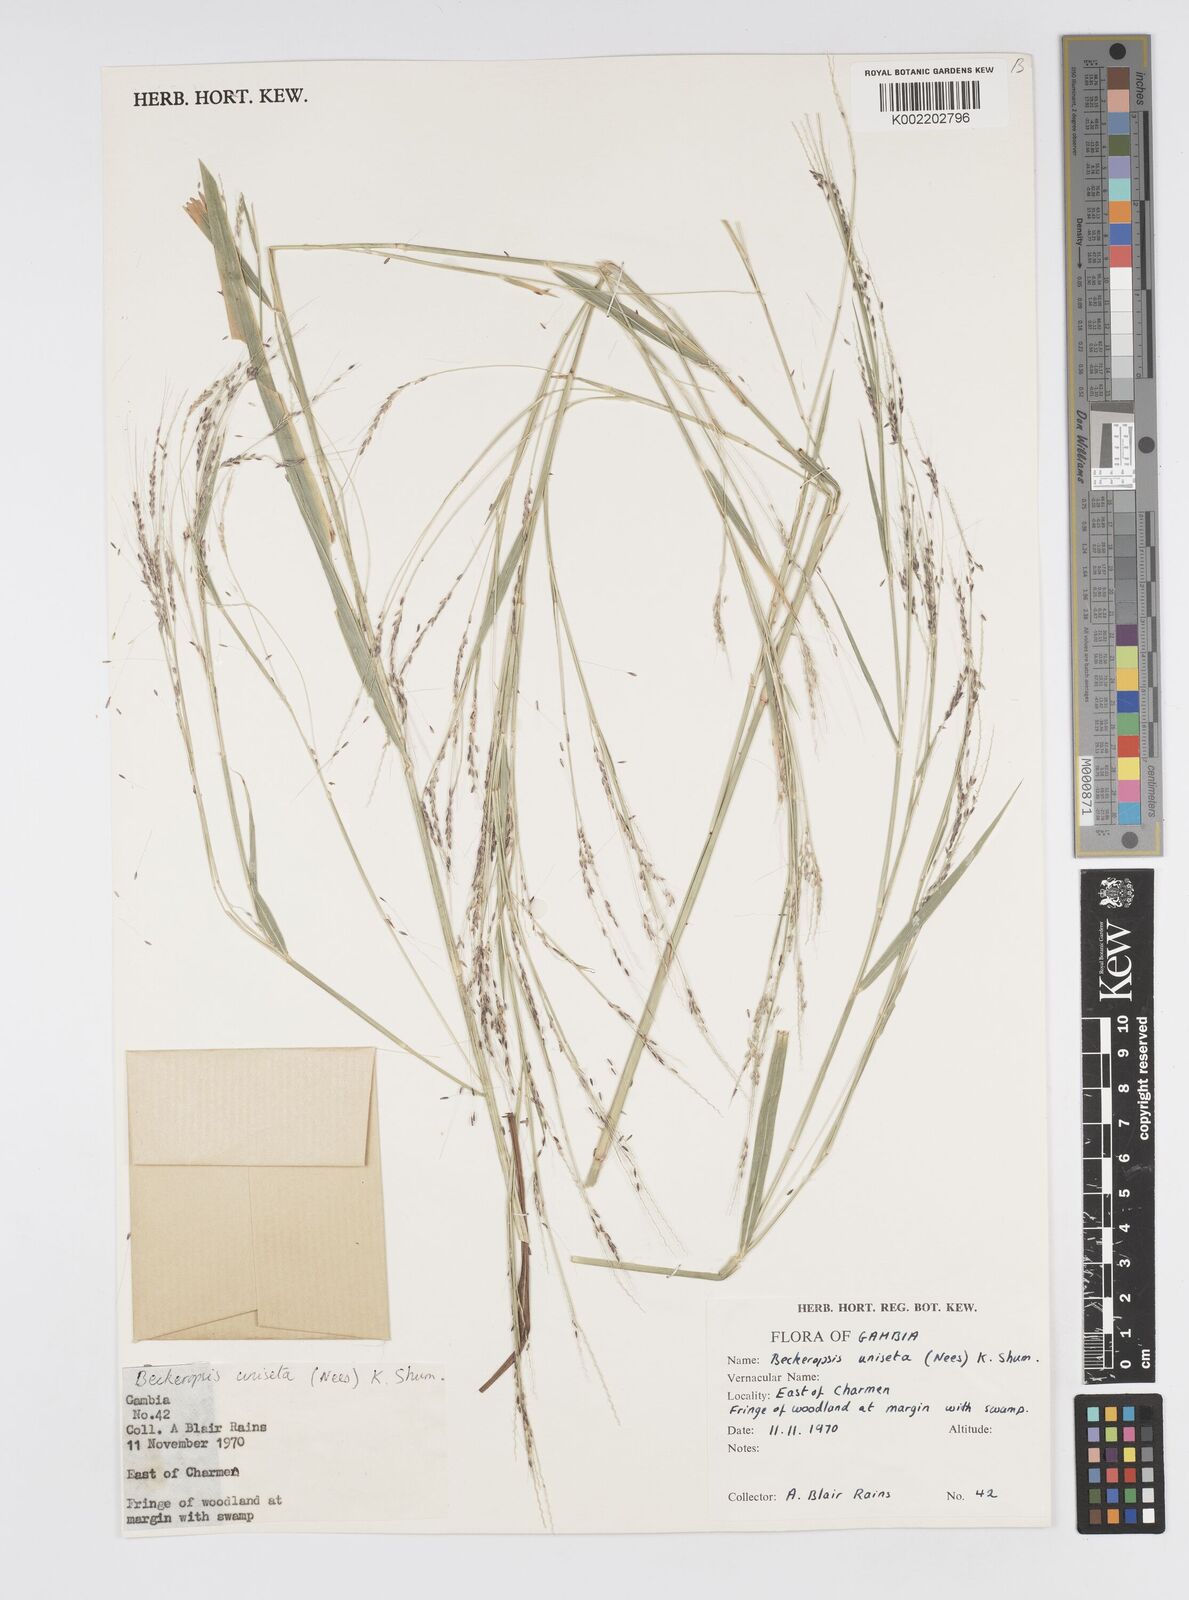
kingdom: Plantae
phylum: Tracheophyta
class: Liliopsida
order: Poales
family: Poaceae
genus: Cenchrus
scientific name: Cenchrus unisetus
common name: Natal grass
